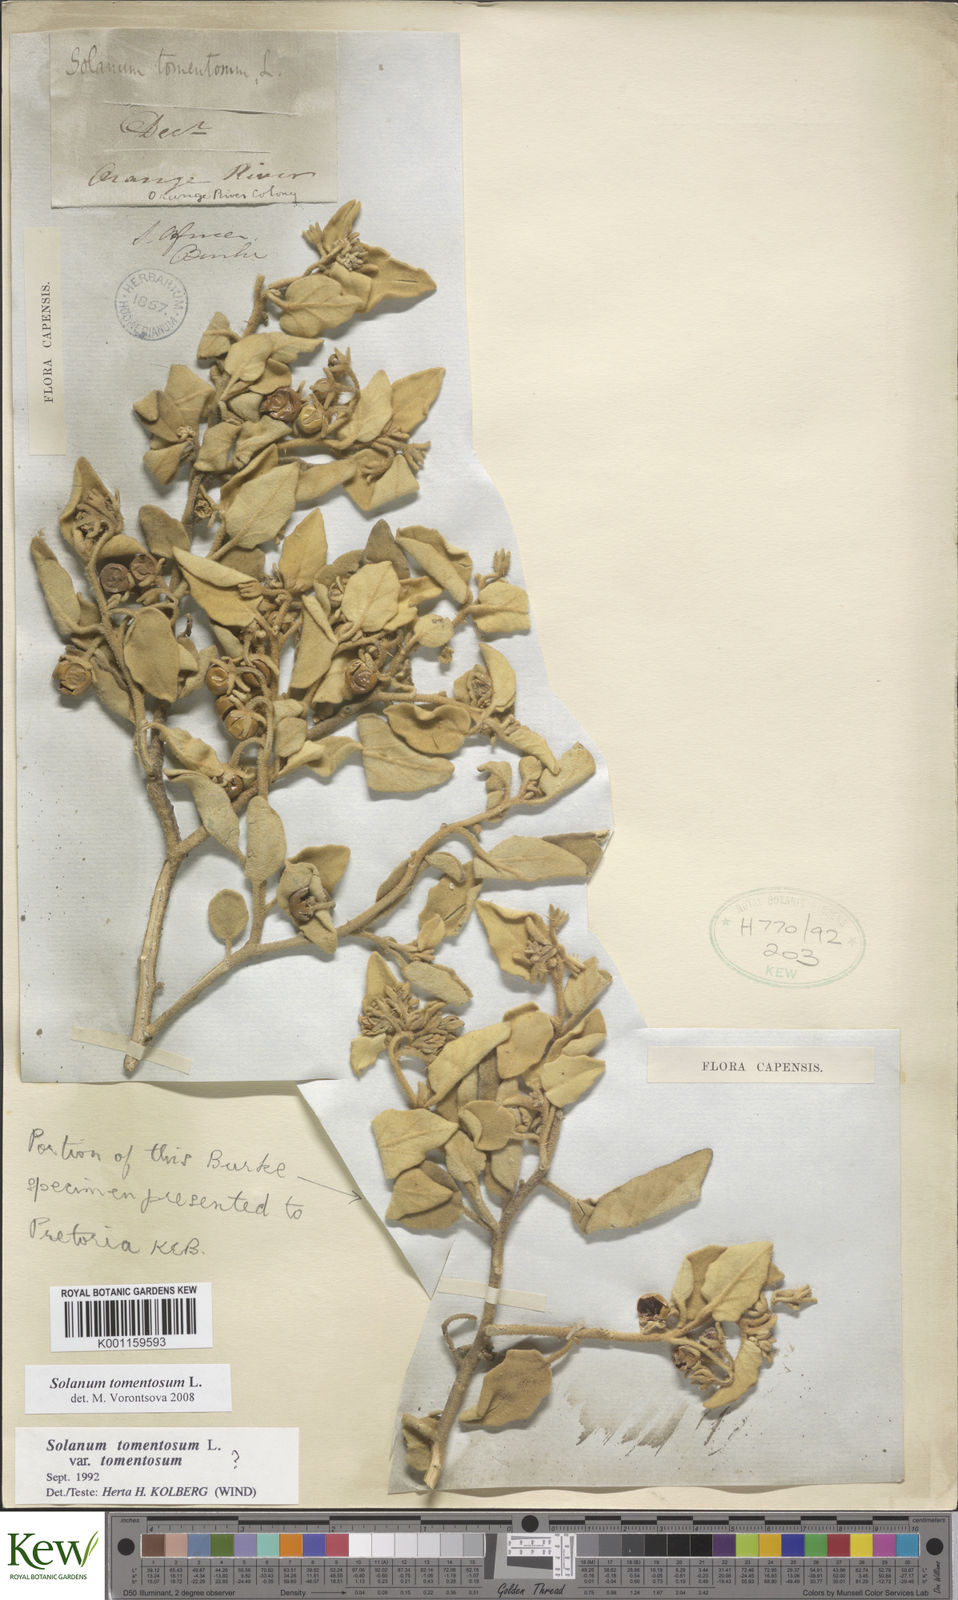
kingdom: Plantae
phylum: Tracheophyta
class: Magnoliopsida
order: Solanales
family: Solanaceae
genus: Solanum
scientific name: Solanum tomentosum
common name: Wild aubergine
